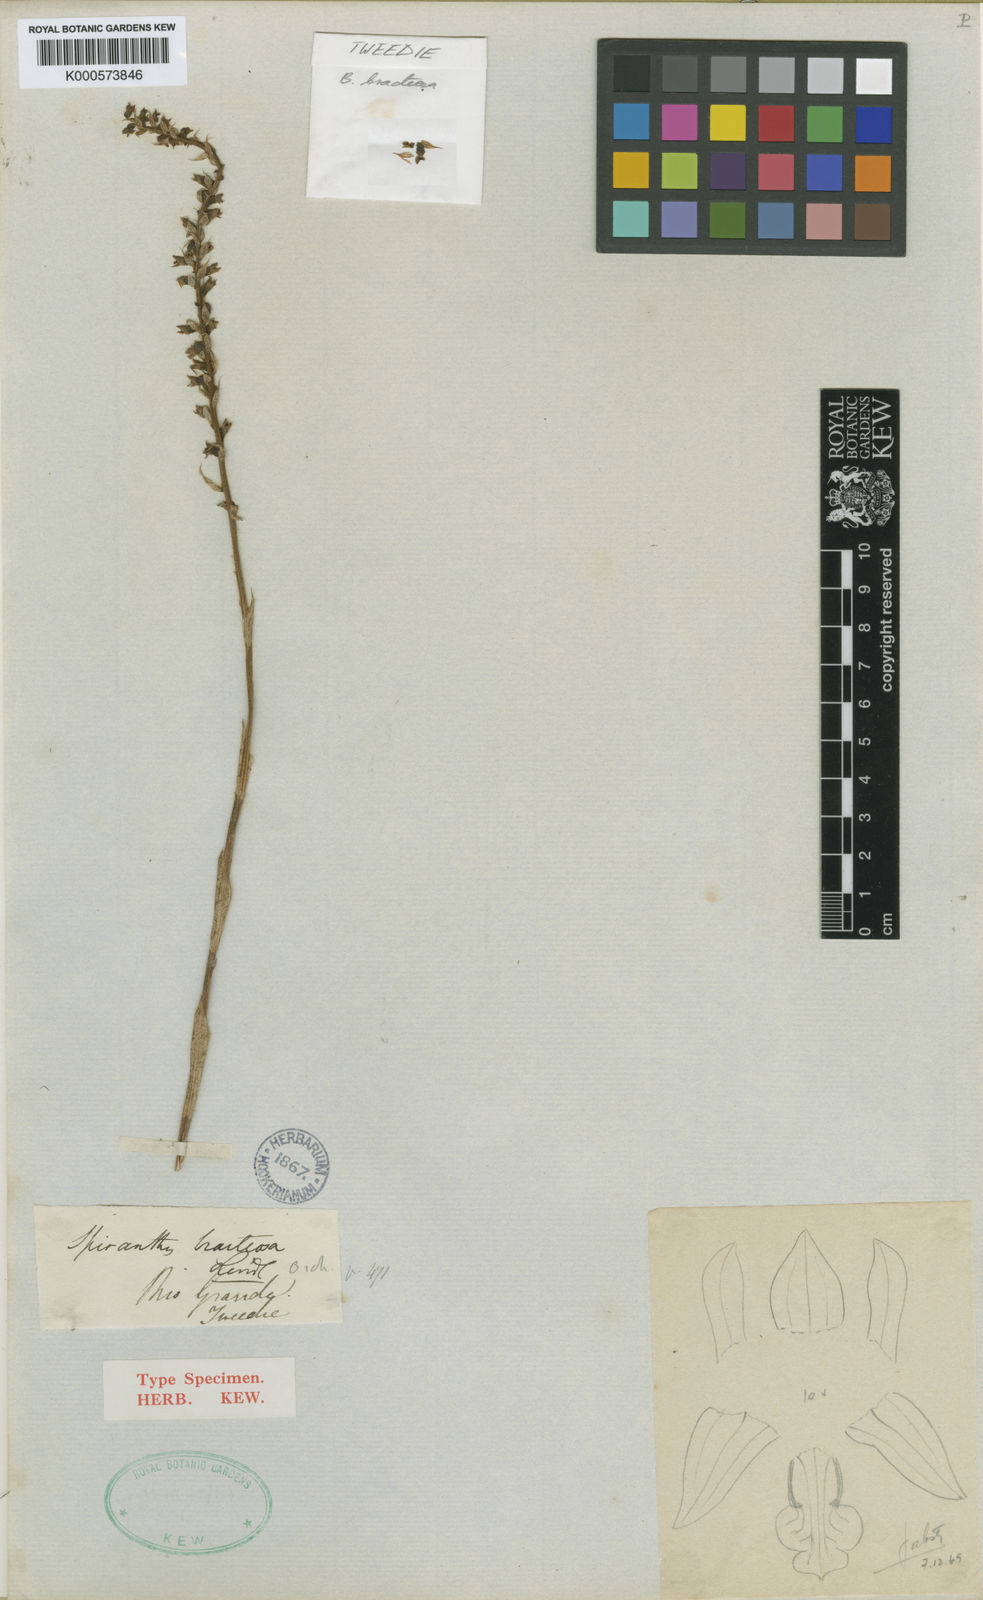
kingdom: Plantae
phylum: Tracheophyta
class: Liliopsida
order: Asparagales
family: Orchidaceae
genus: Brachystele
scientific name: Brachystele bracteosa
